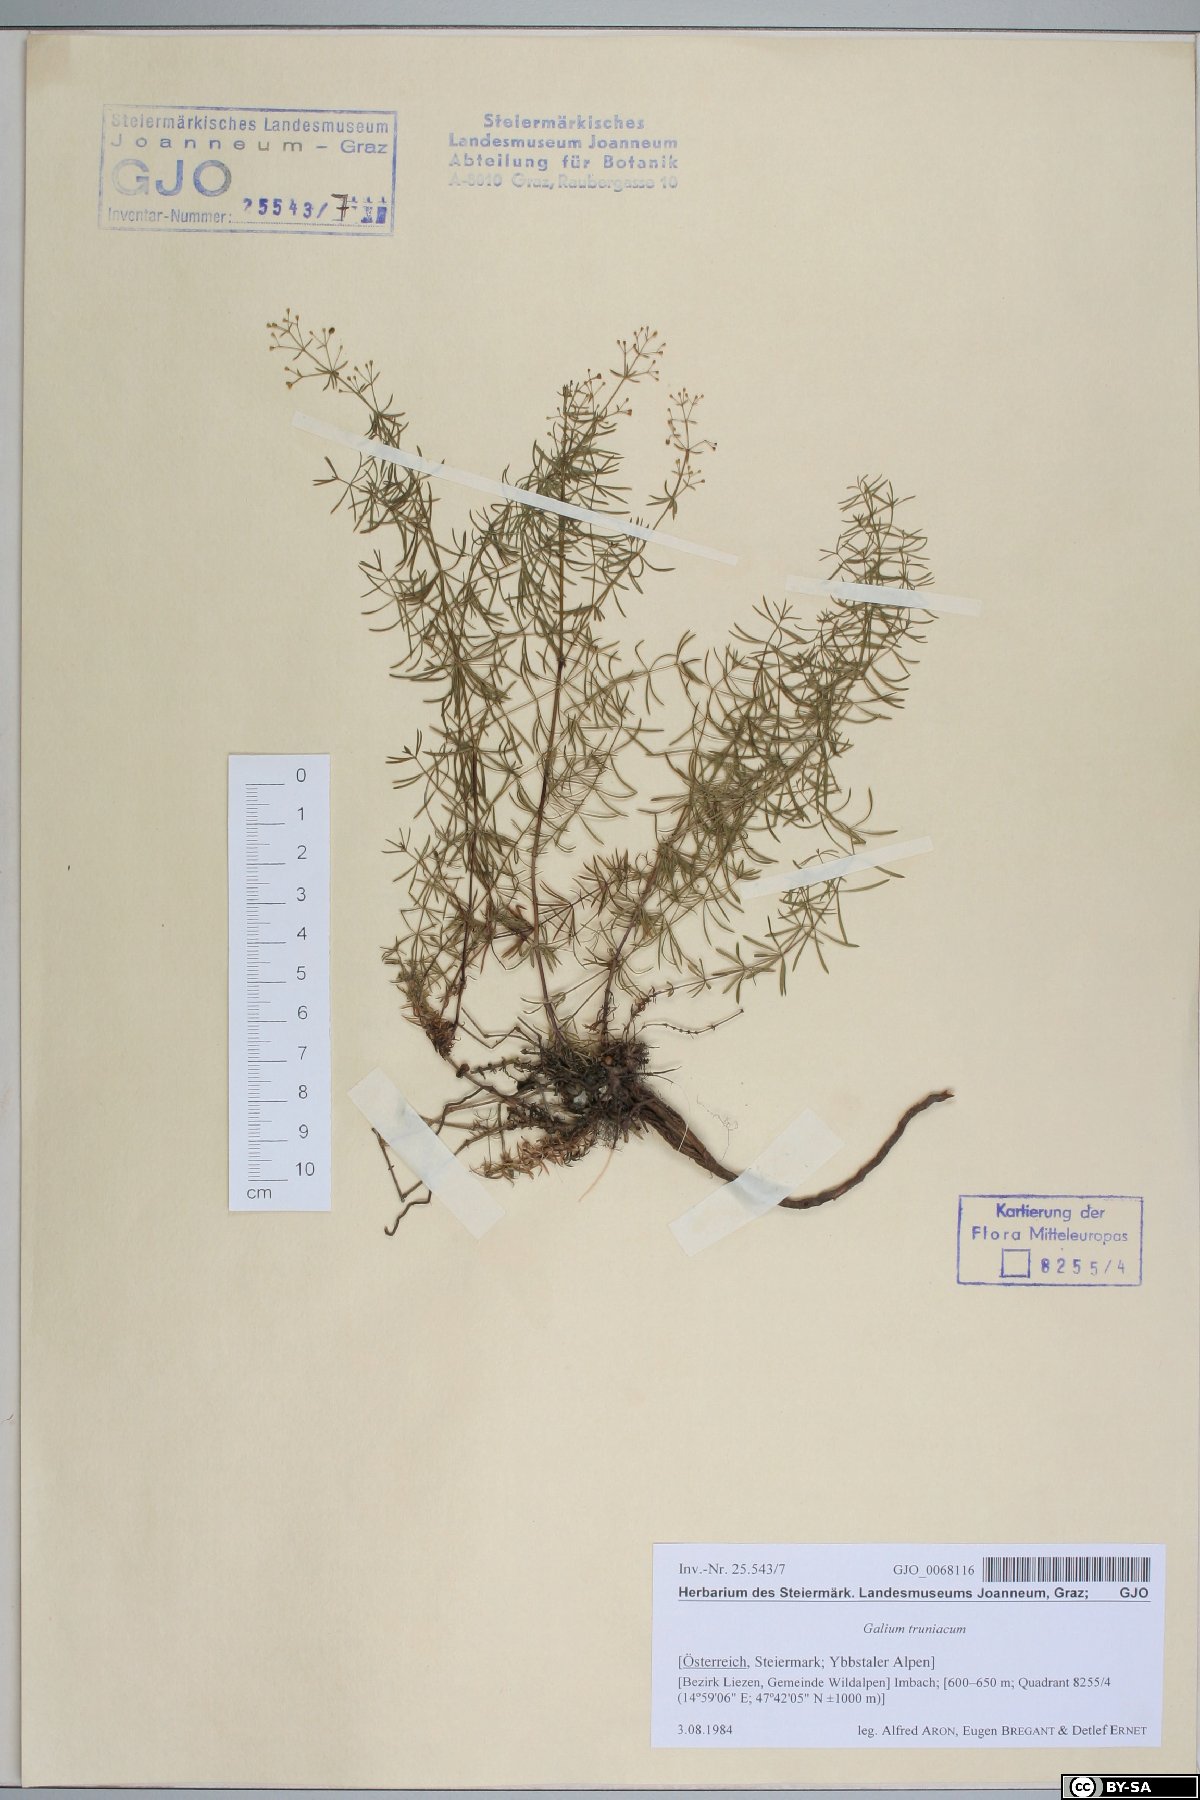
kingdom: Plantae
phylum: Tracheophyta
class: Magnoliopsida
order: Gentianales
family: Rubiaceae
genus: Galium
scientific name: Galium truniacum
